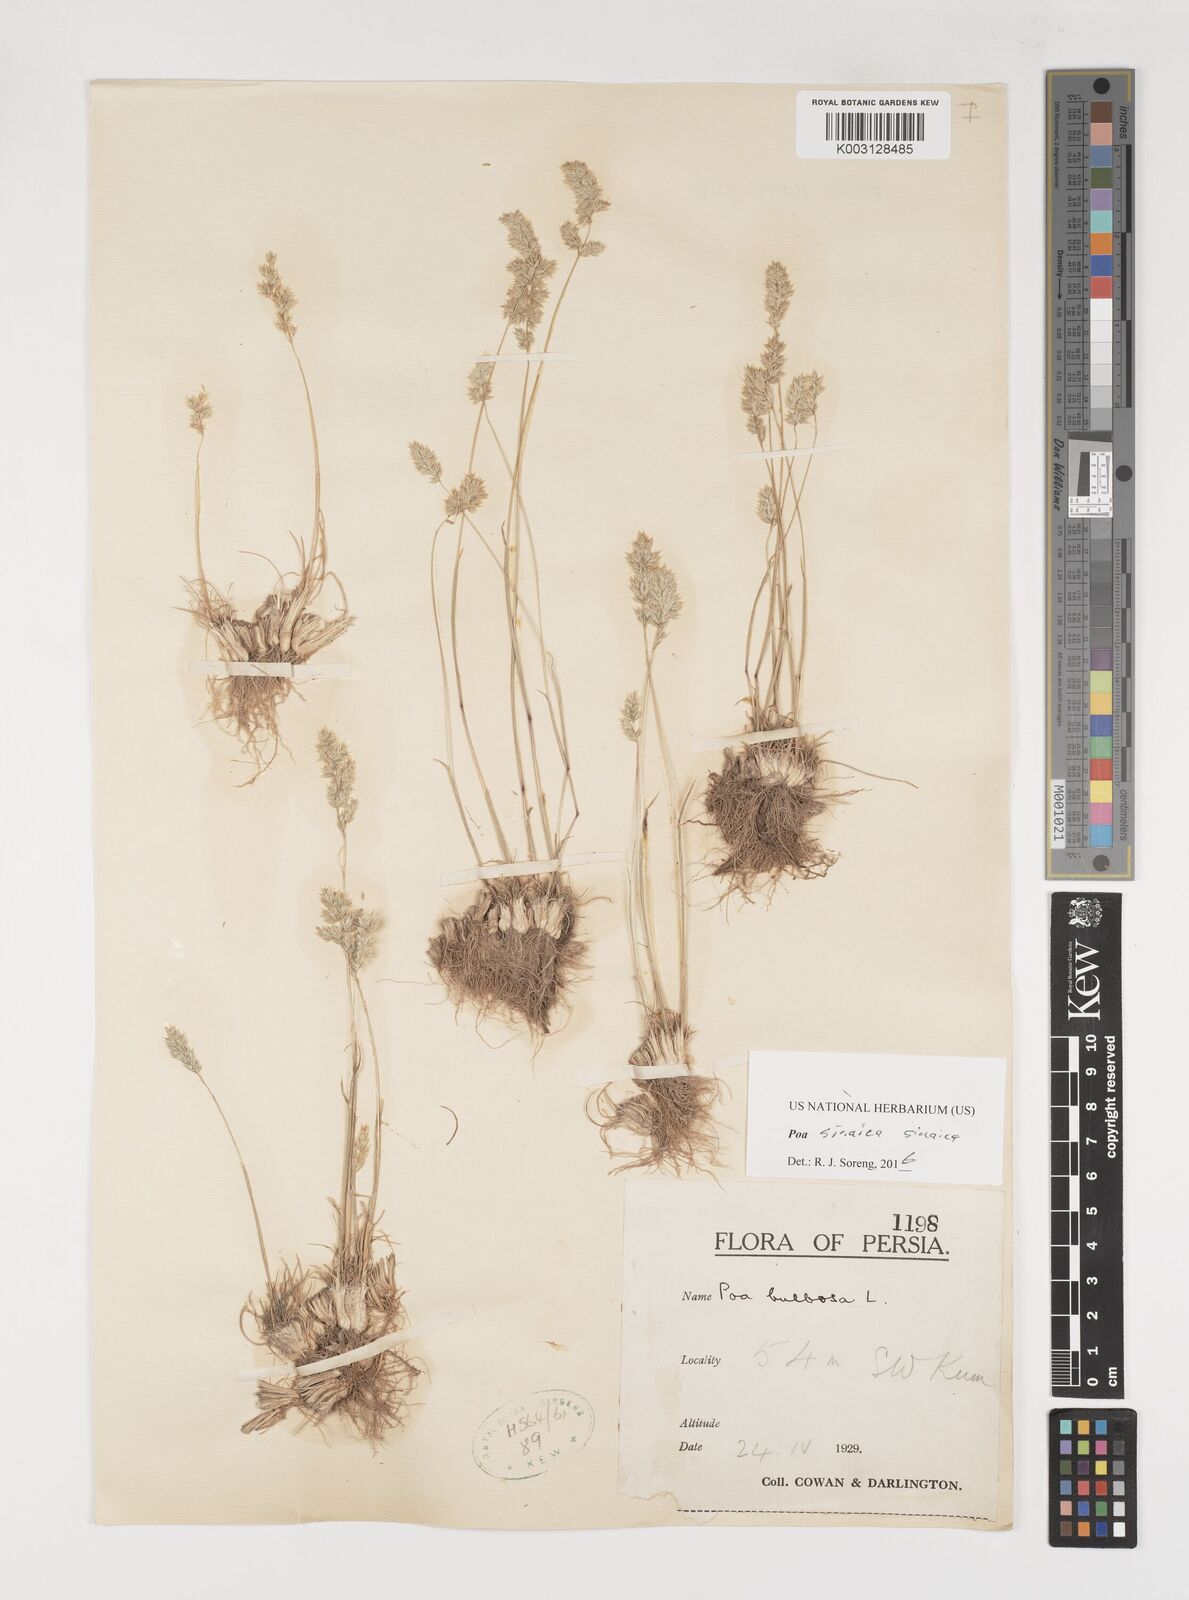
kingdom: Plantae
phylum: Tracheophyta
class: Liliopsida
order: Poales
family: Poaceae
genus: Poa
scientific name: Poa sinaica
